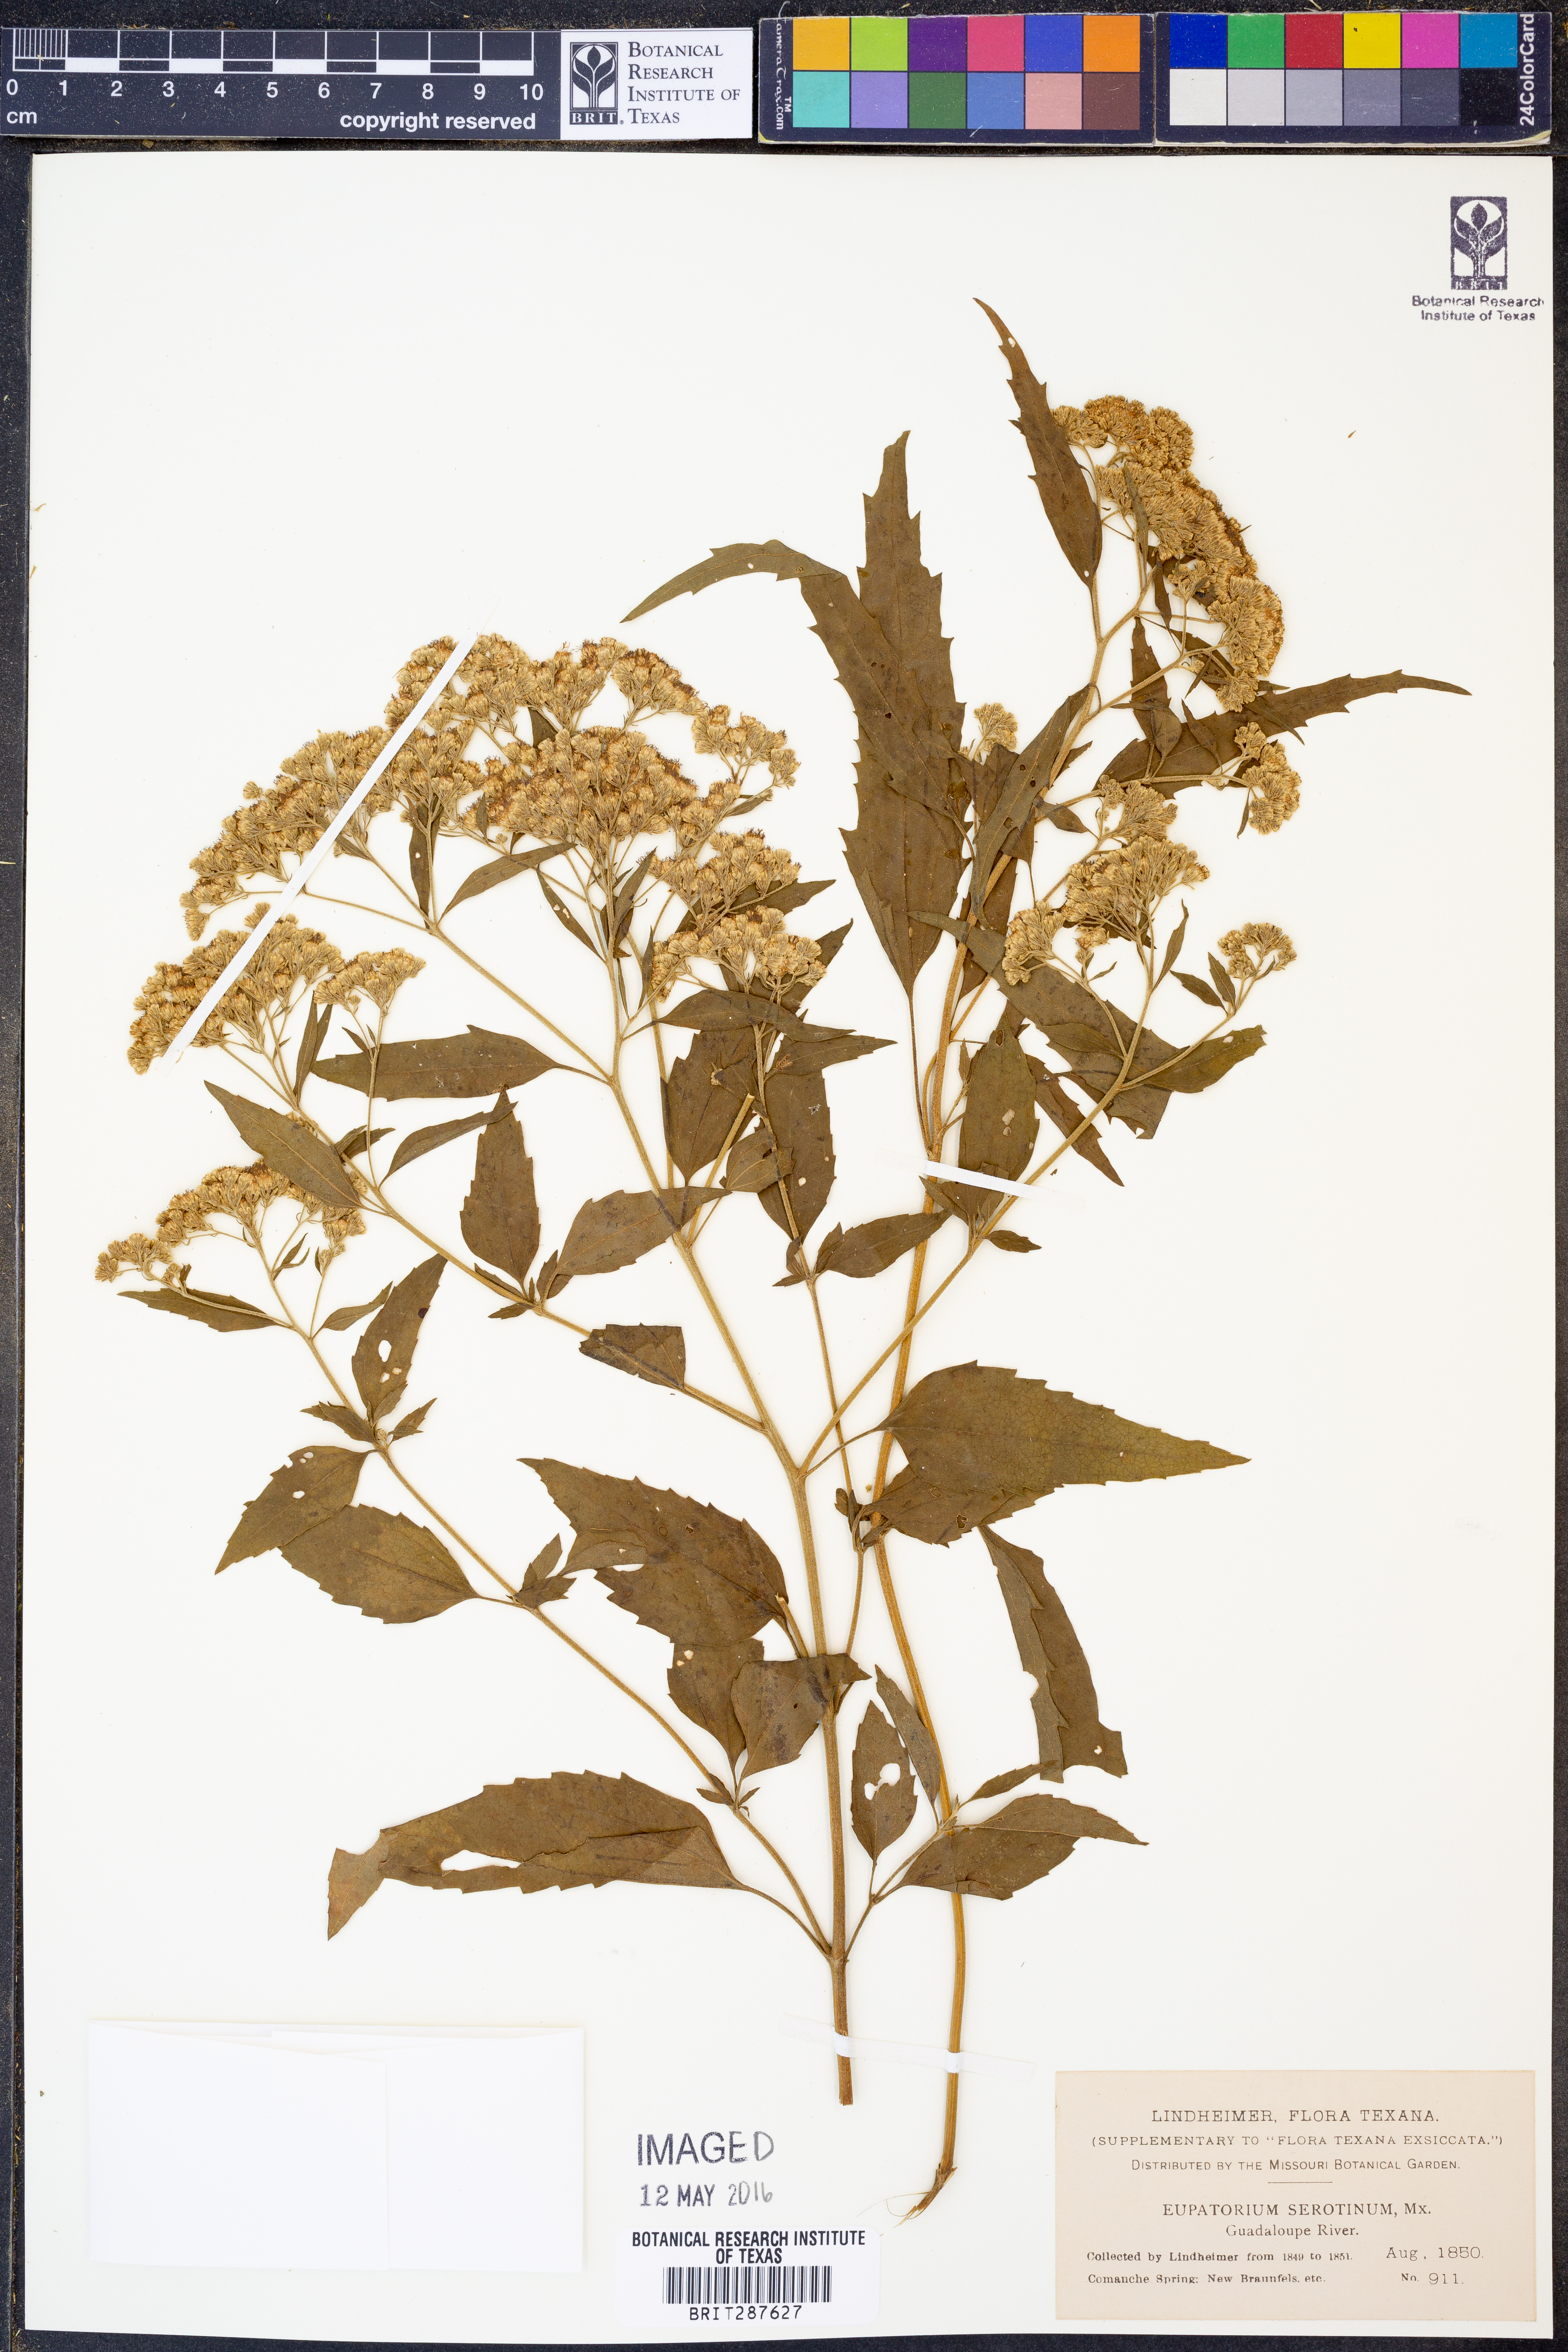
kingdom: Plantae
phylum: Tracheophyta
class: Magnoliopsida
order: Asterales
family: Asteraceae
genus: Eupatorium
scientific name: Eupatorium serotinum
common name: Late boneset
